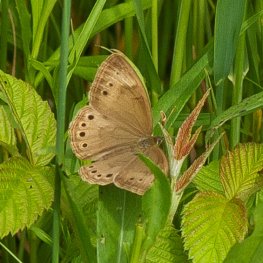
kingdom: Animalia
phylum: Arthropoda
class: Insecta
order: Lepidoptera
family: Nymphalidae
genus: Lethe
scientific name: Lethe eurydice
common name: Eyed Brown
